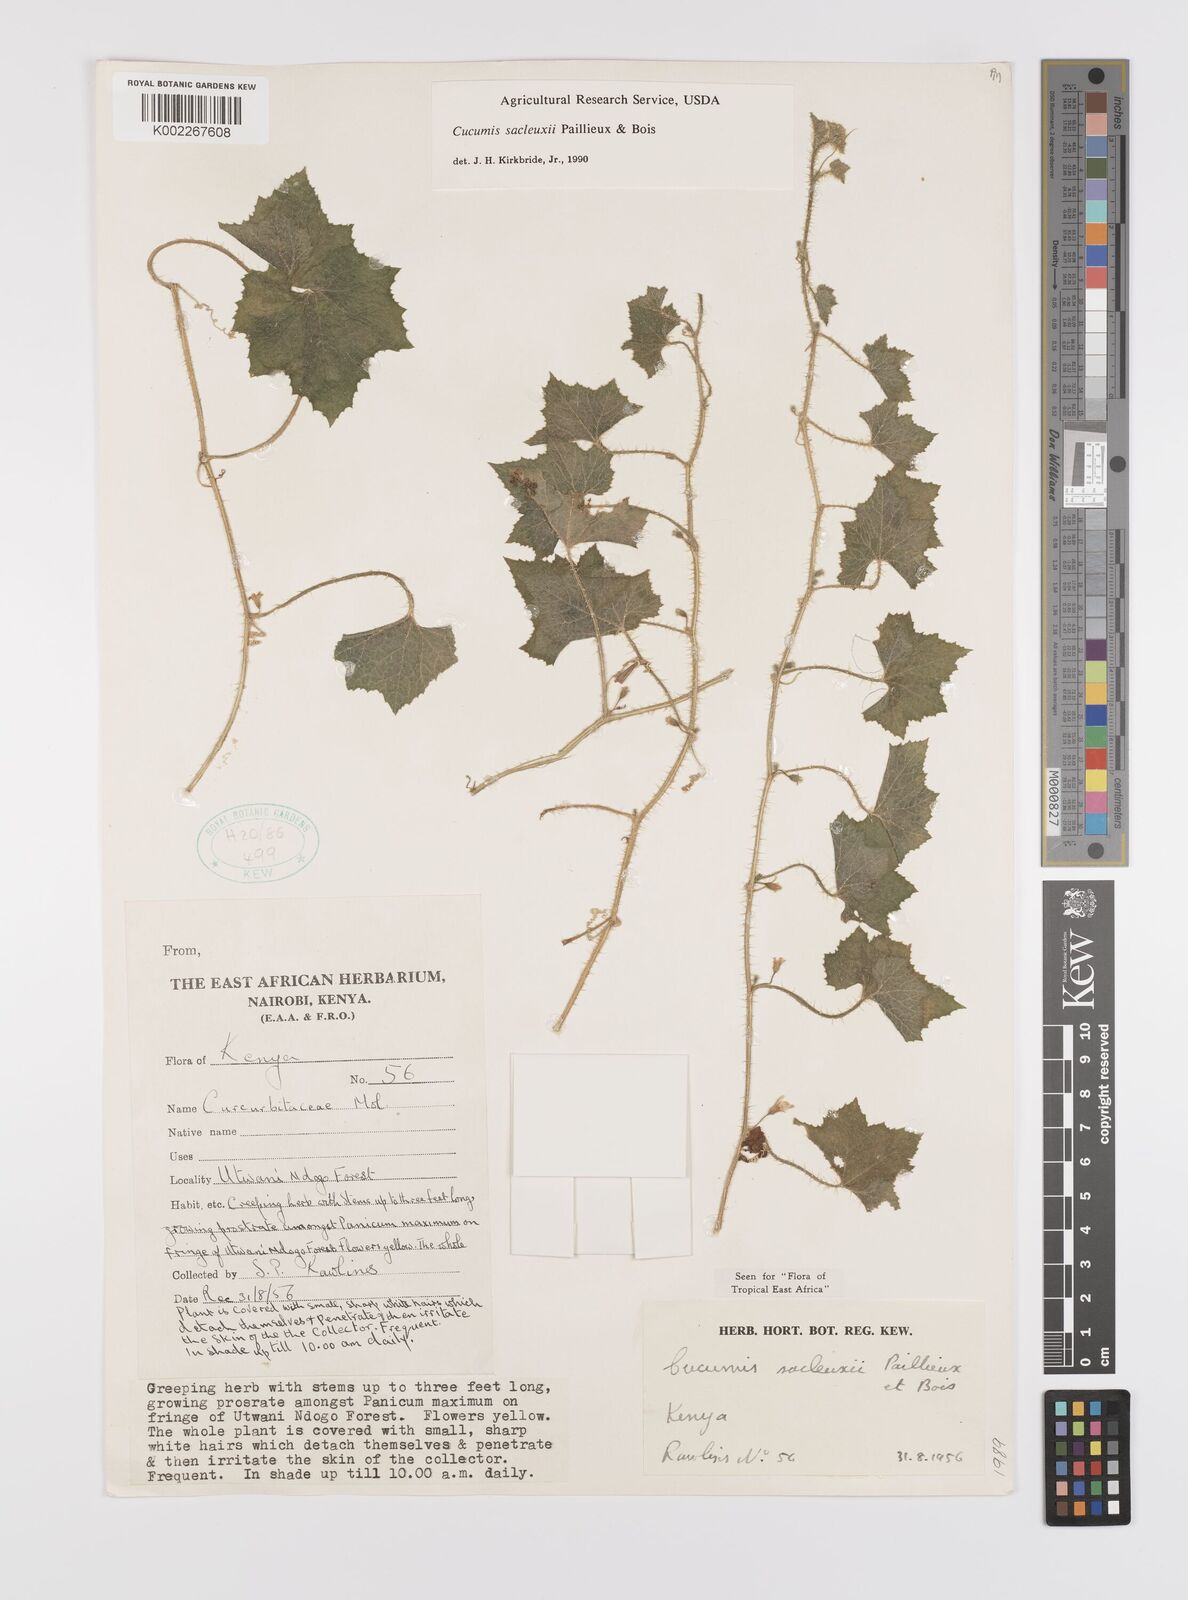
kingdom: Plantae
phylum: Tracheophyta
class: Magnoliopsida
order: Cucurbitales
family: Cucurbitaceae
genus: Cucumis
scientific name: Cucumis sacleuxii
